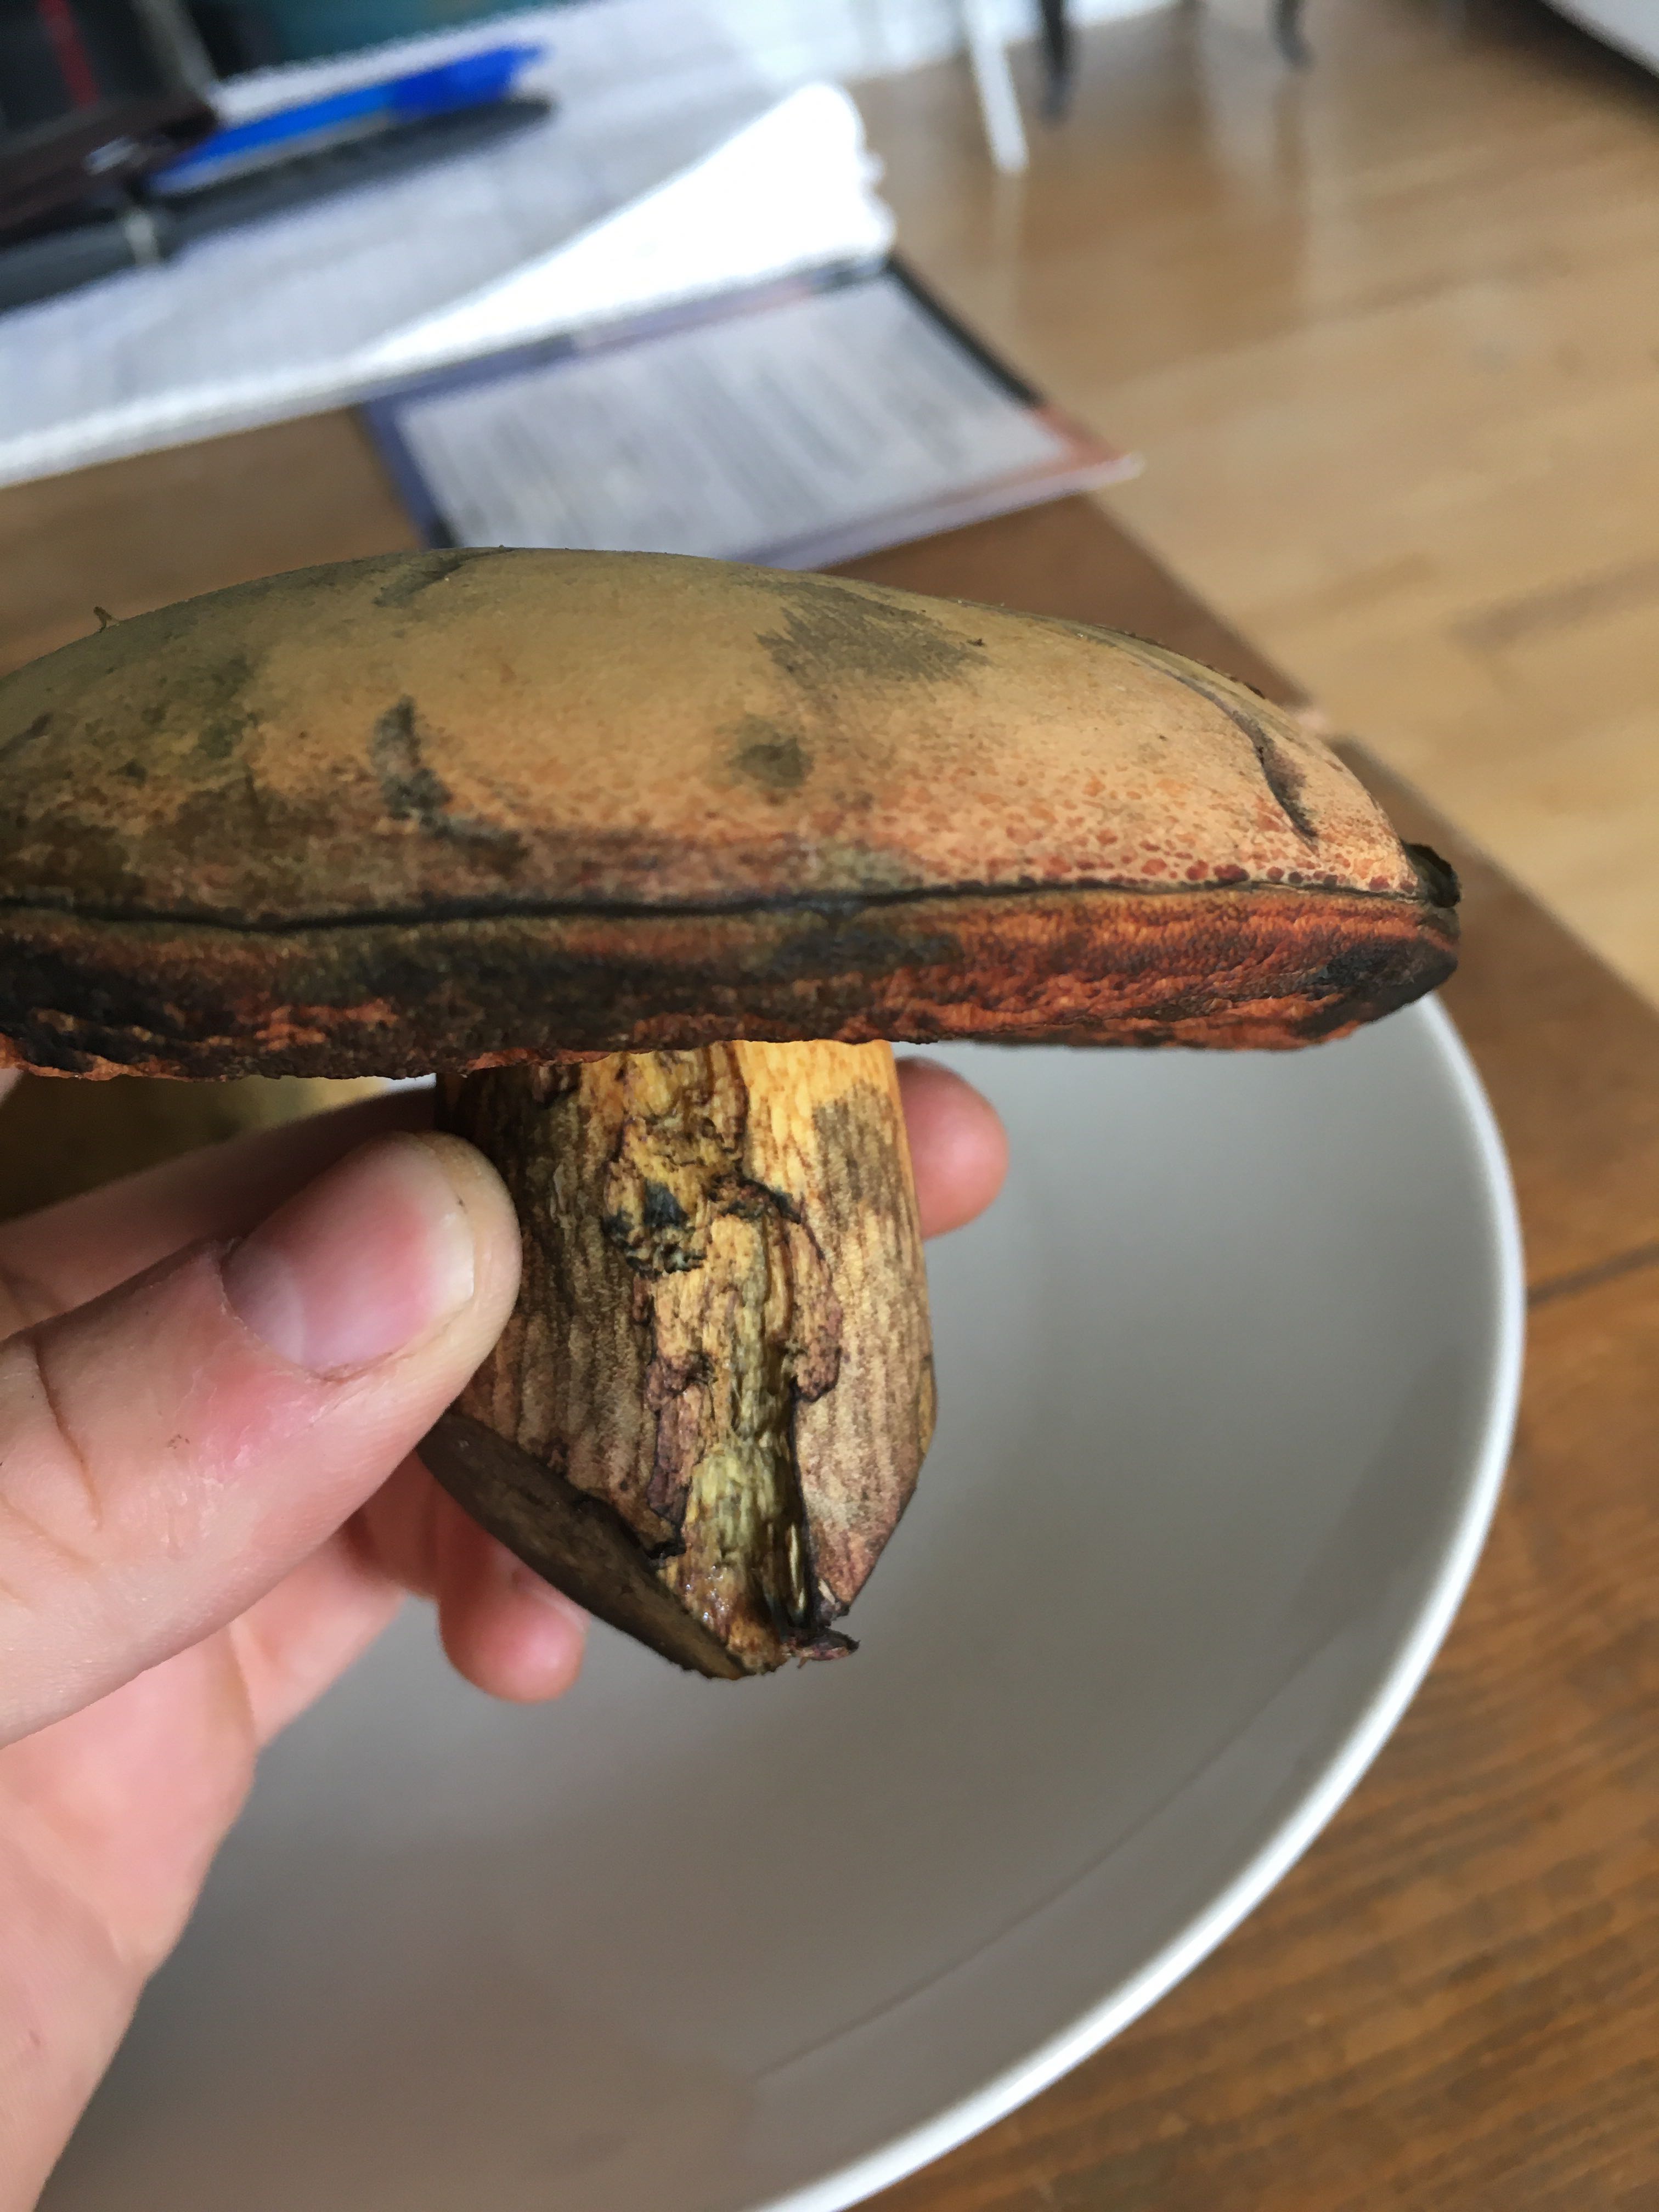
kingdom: Fungi
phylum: Basidiomycota
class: Agaricomycetes
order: Boletales
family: Boletaceae
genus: Suillellus
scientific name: Suillellus luridus
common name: netstokket indigorørhat
